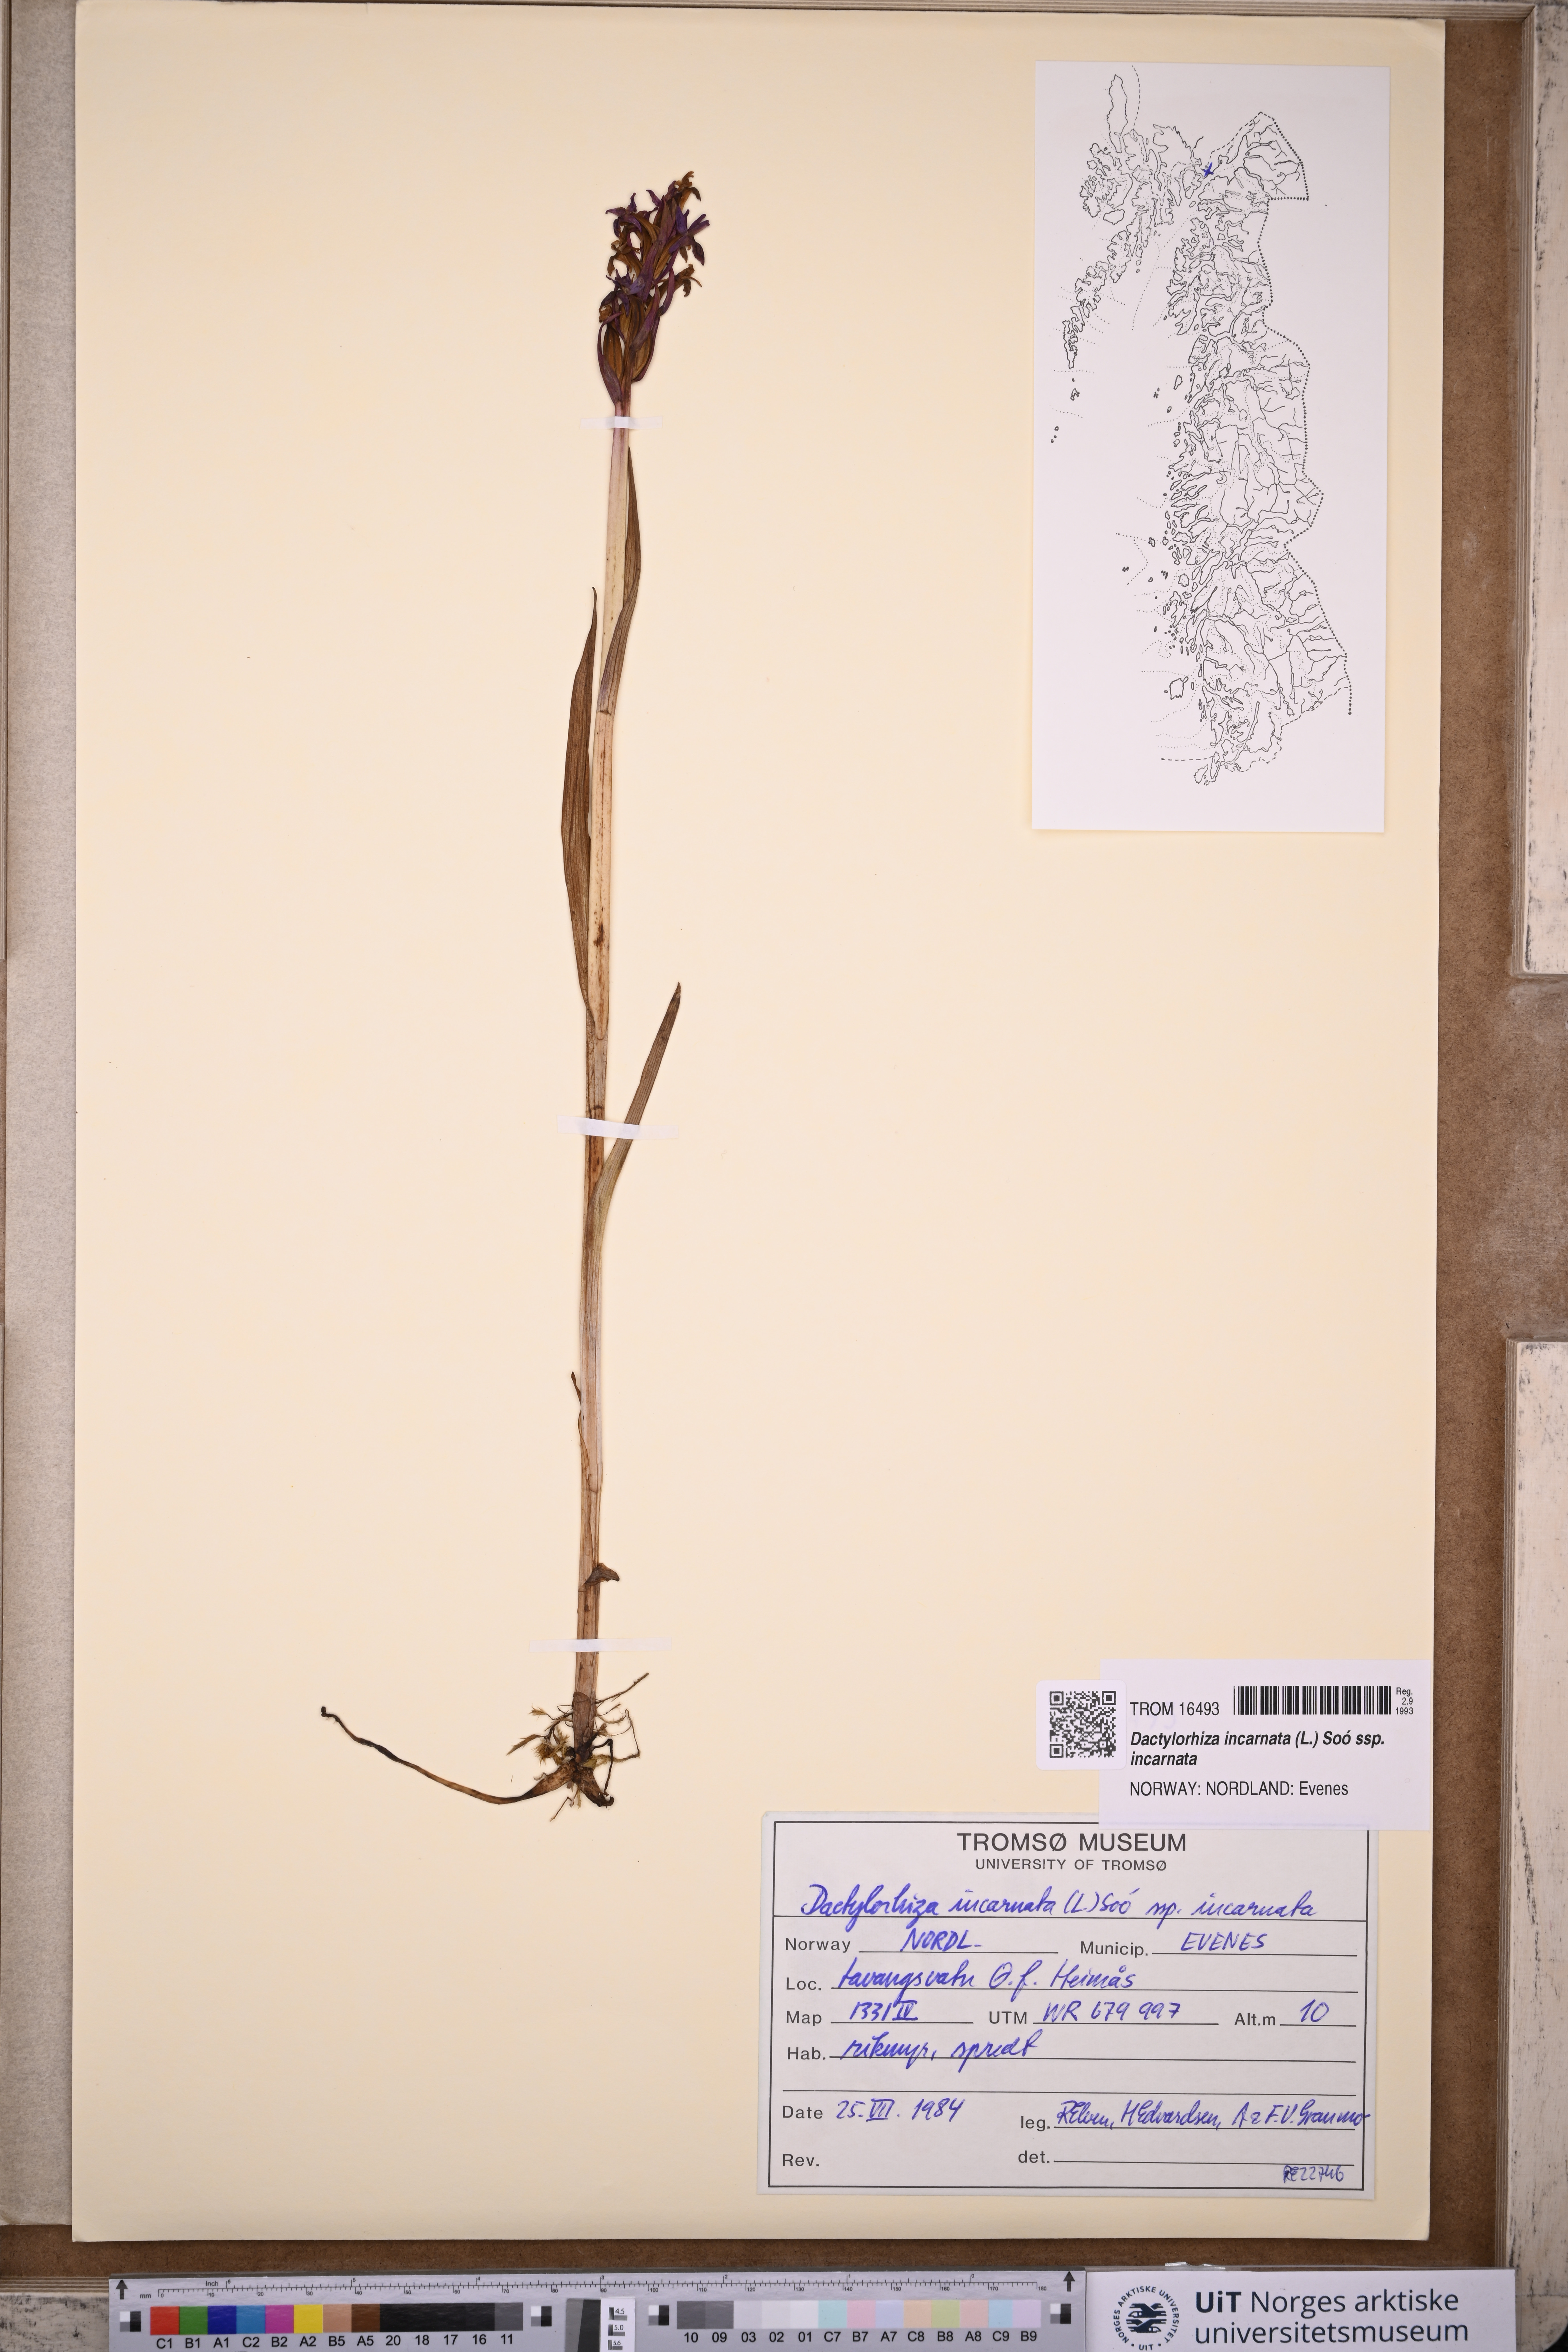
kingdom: Plantae
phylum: Tracheophyta
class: Liliopsida
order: Asparagales
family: Orchidaceae
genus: Dactylorhiza
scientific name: Dactylorhiza incarnata
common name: Early marsh-orchid
